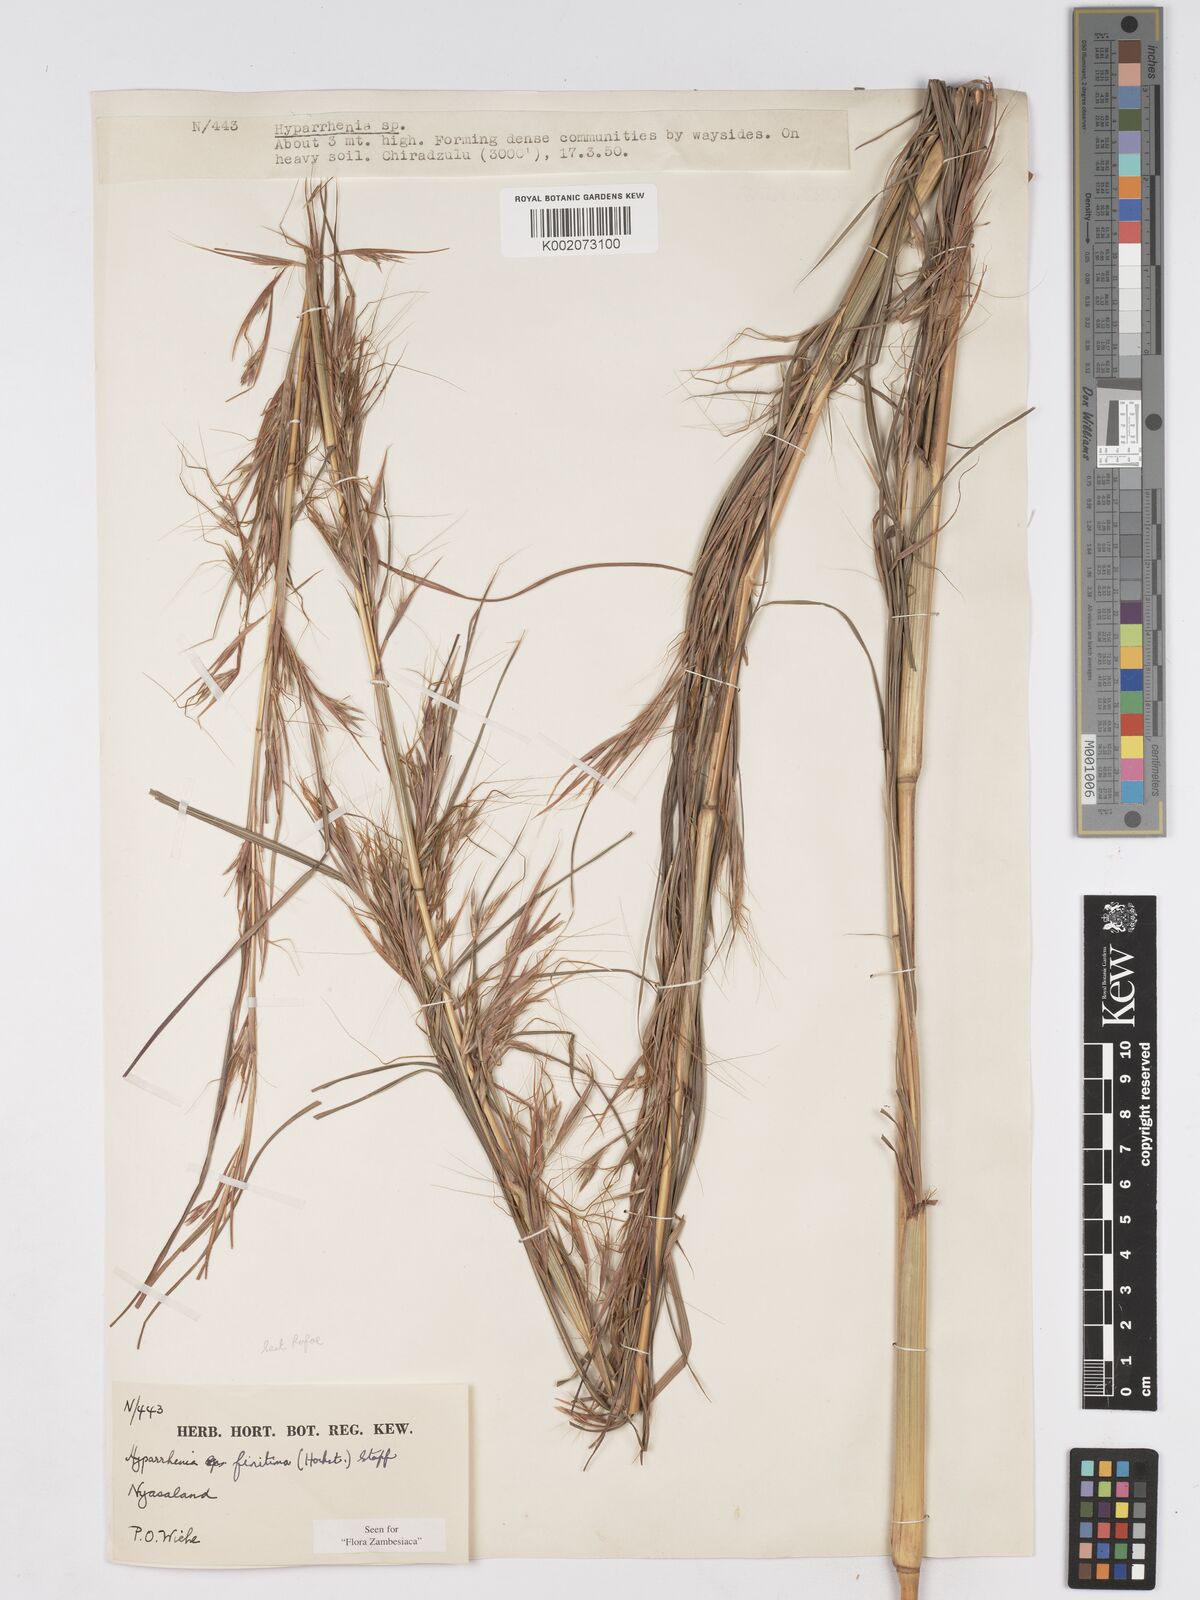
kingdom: Plantae
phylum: Tracheophyta
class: Liliopsida
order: Poales
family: Poaceae
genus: Hyparrhenia
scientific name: Hyparrhenia finitima
